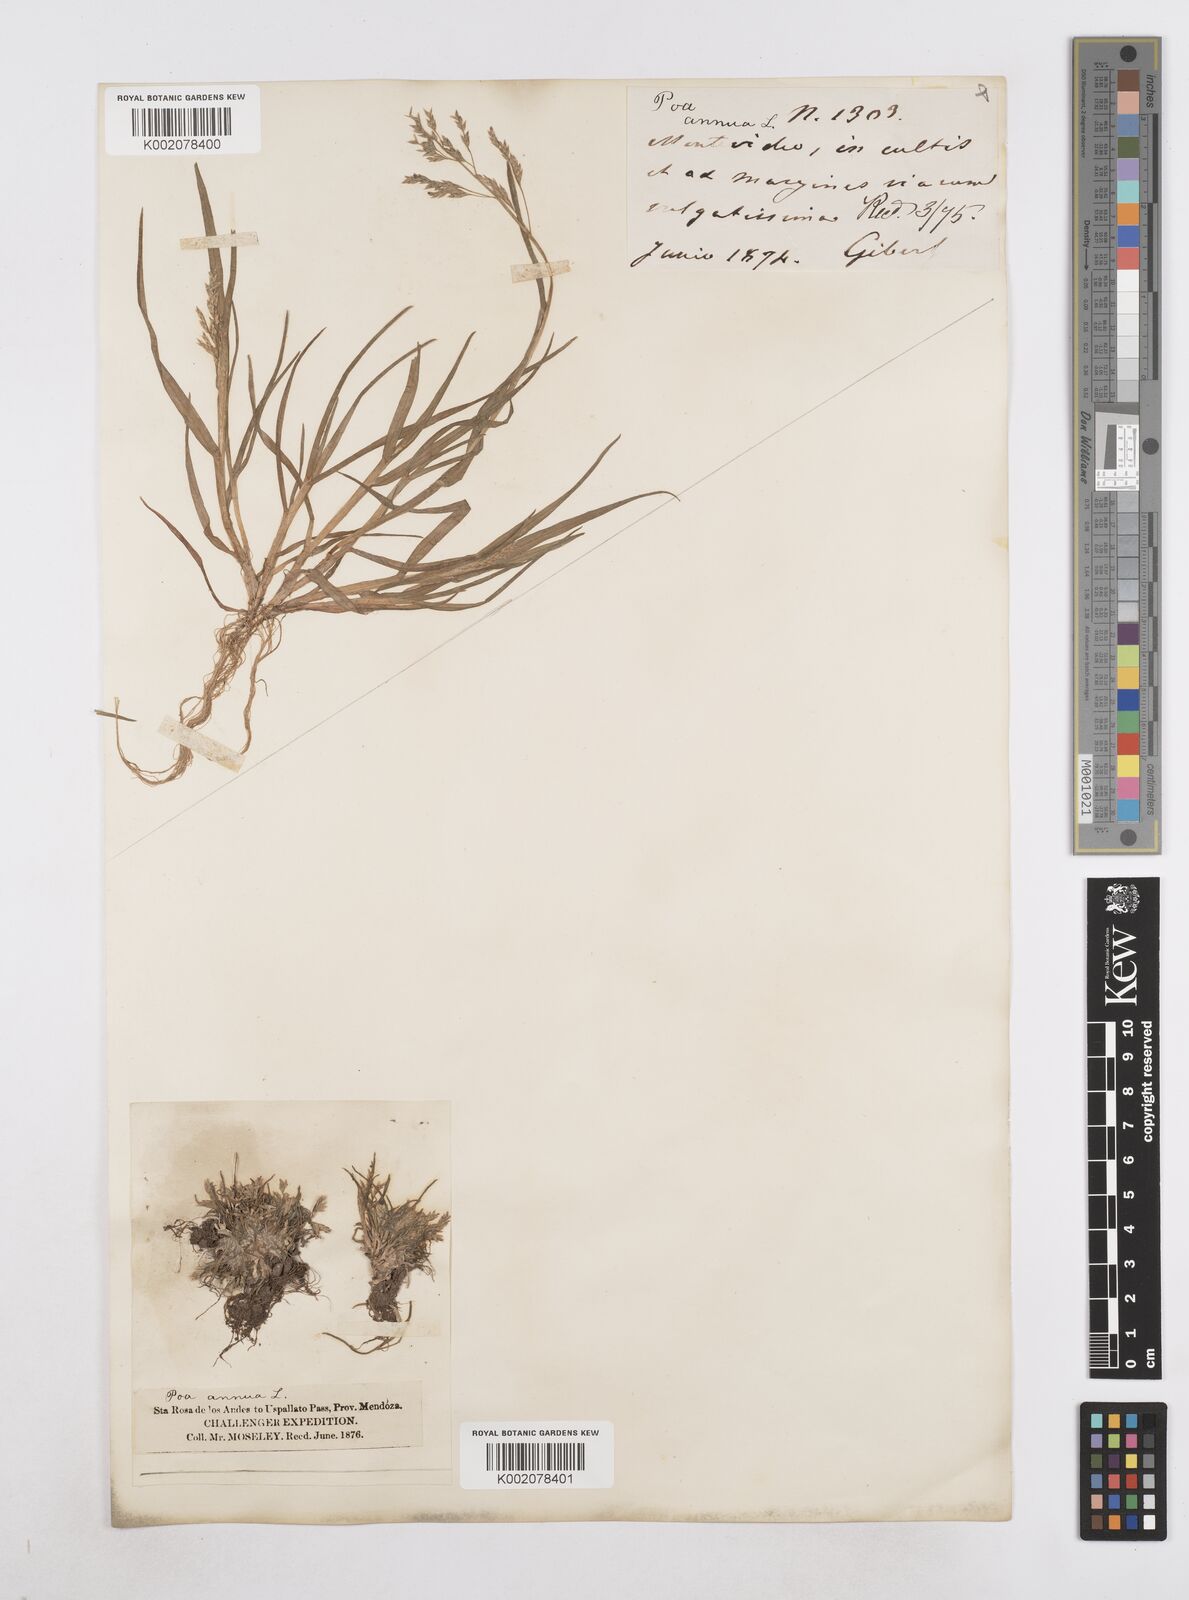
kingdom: Plantae
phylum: Tracheophyta
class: Liliopsida
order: Poales
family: Poaceae
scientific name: Poaceae
